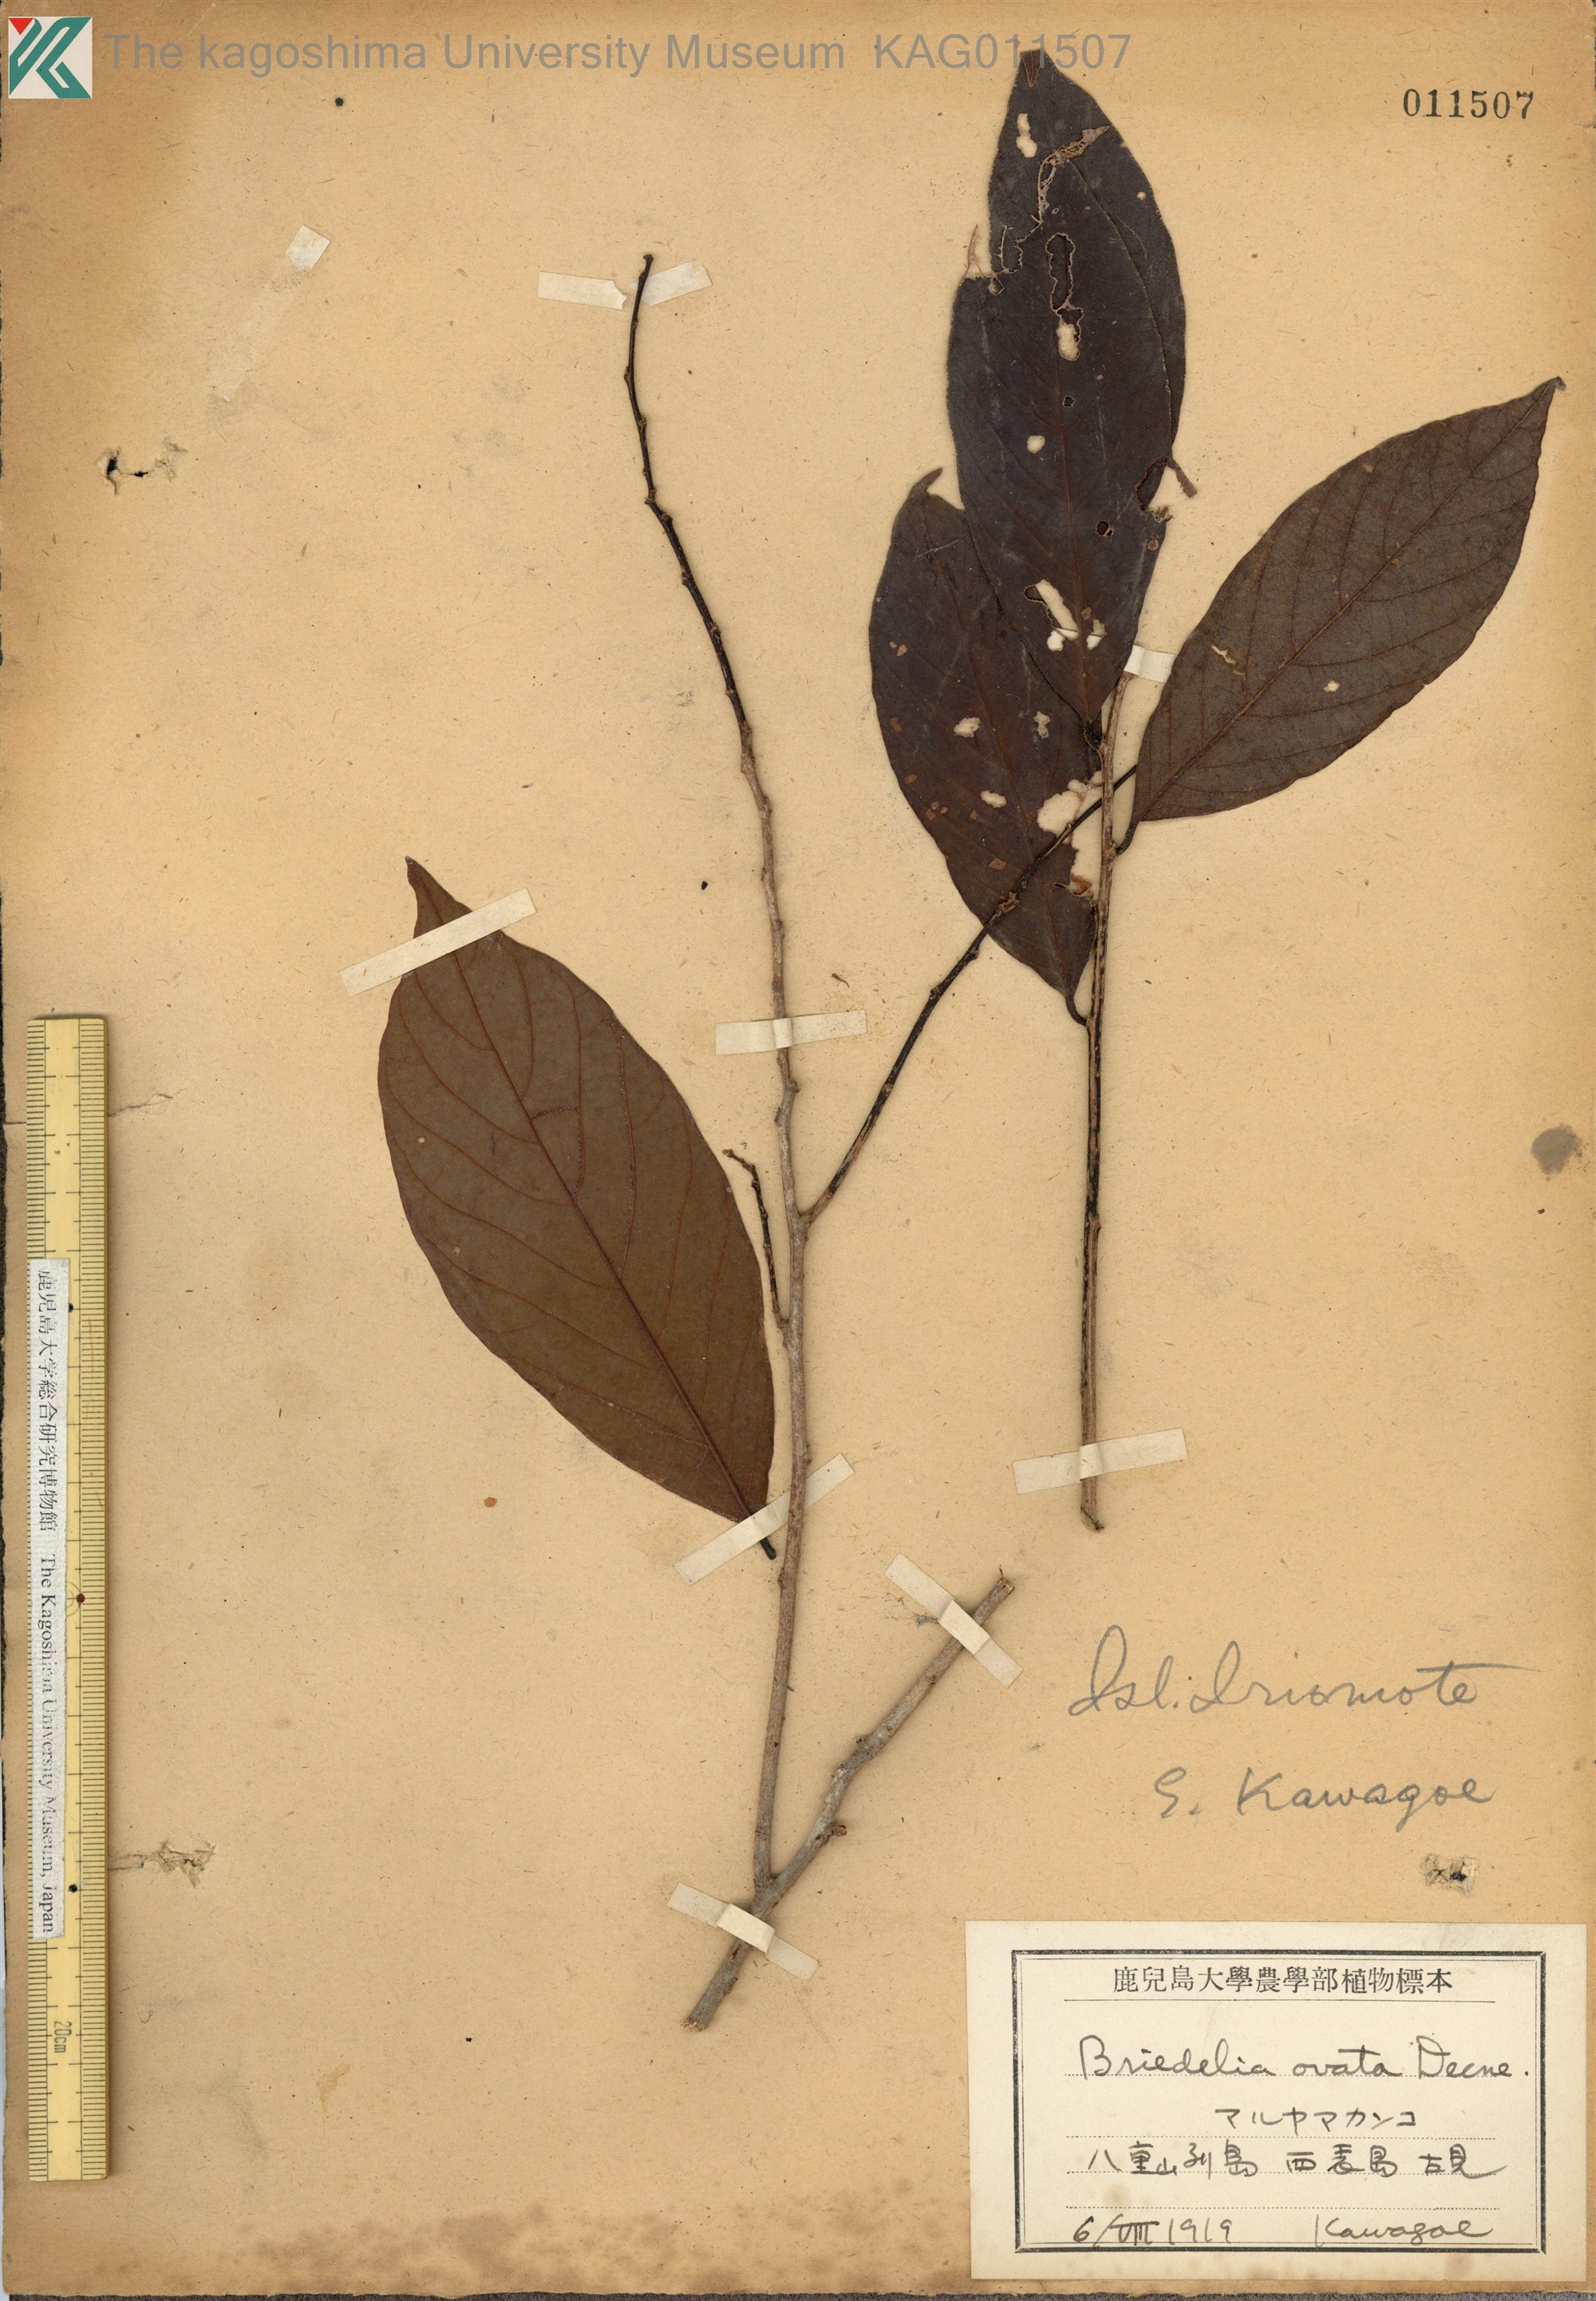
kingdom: Plantae
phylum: Tracheophyta
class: Magnoliopsida
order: Malpighiales
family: Phyllanthaceae
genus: Bridelia
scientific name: Bridelia balansae
